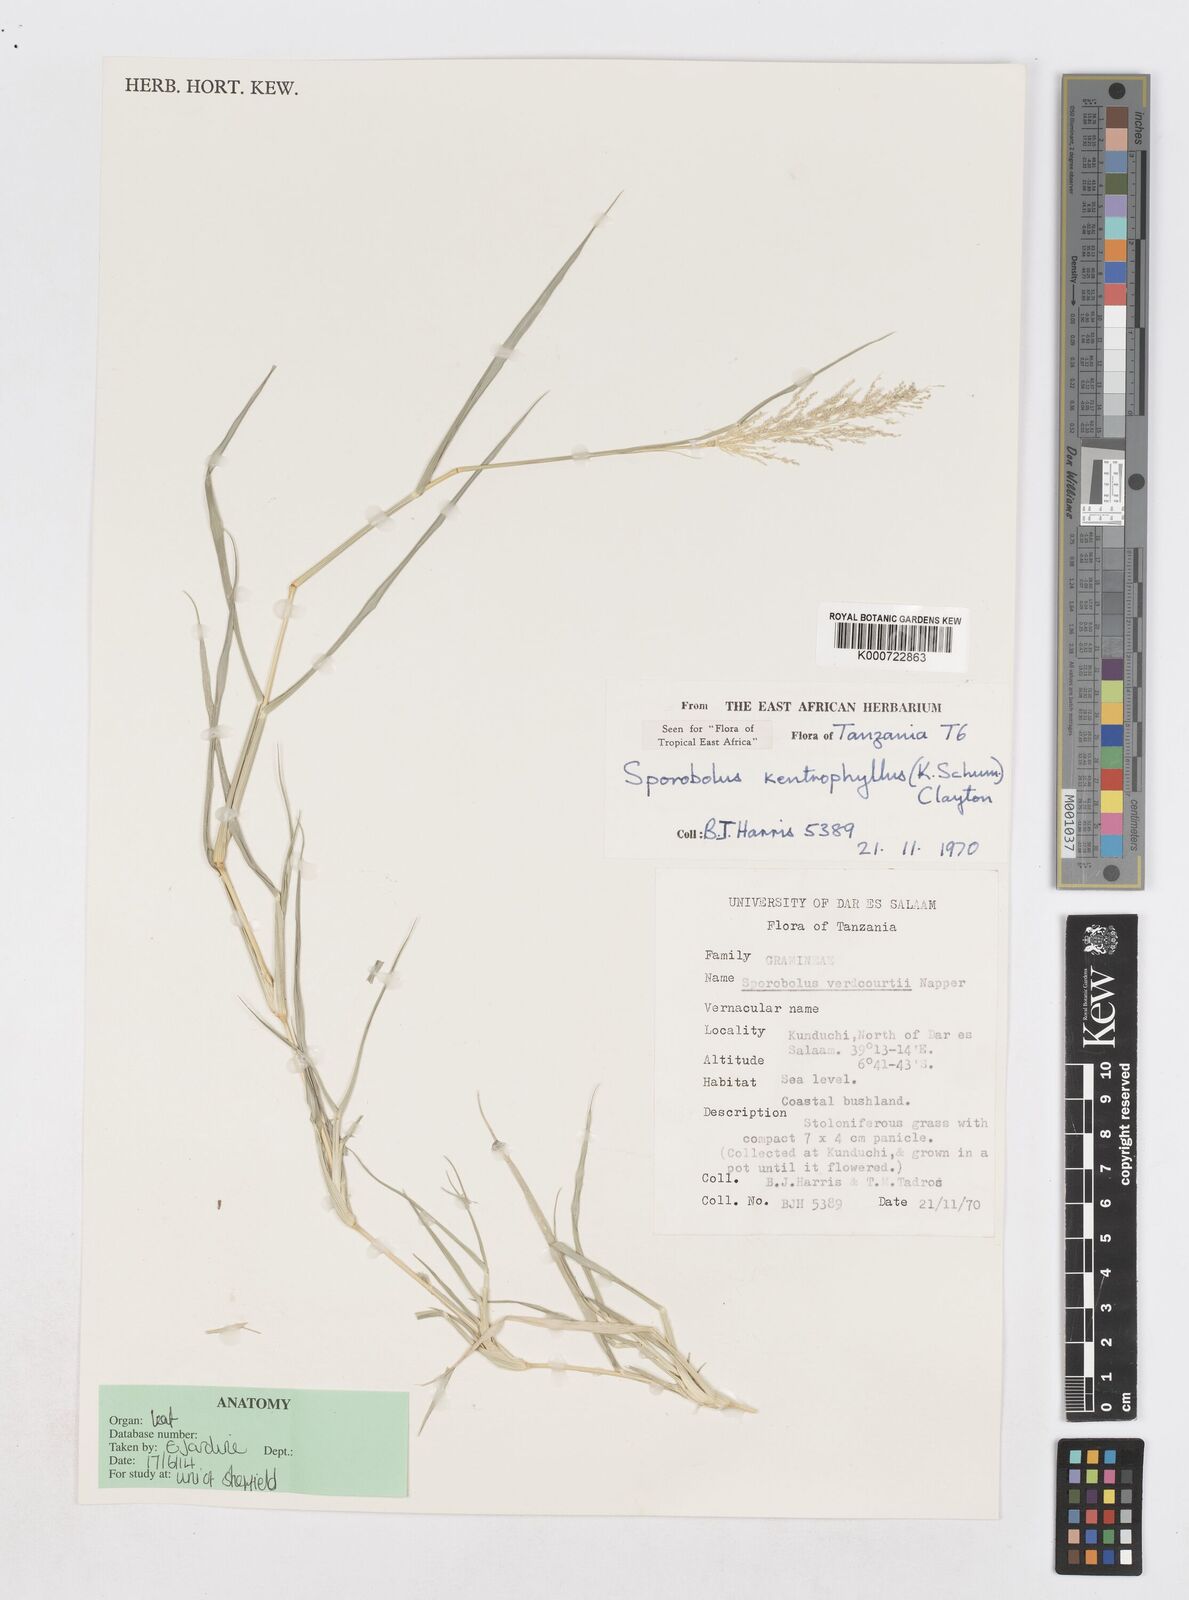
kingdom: Plantae
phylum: Tracheophyta
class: Liliopsida
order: Poales
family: Poaceae
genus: Sporobolus
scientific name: Sporobolus ioclados
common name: Pan dropseed
